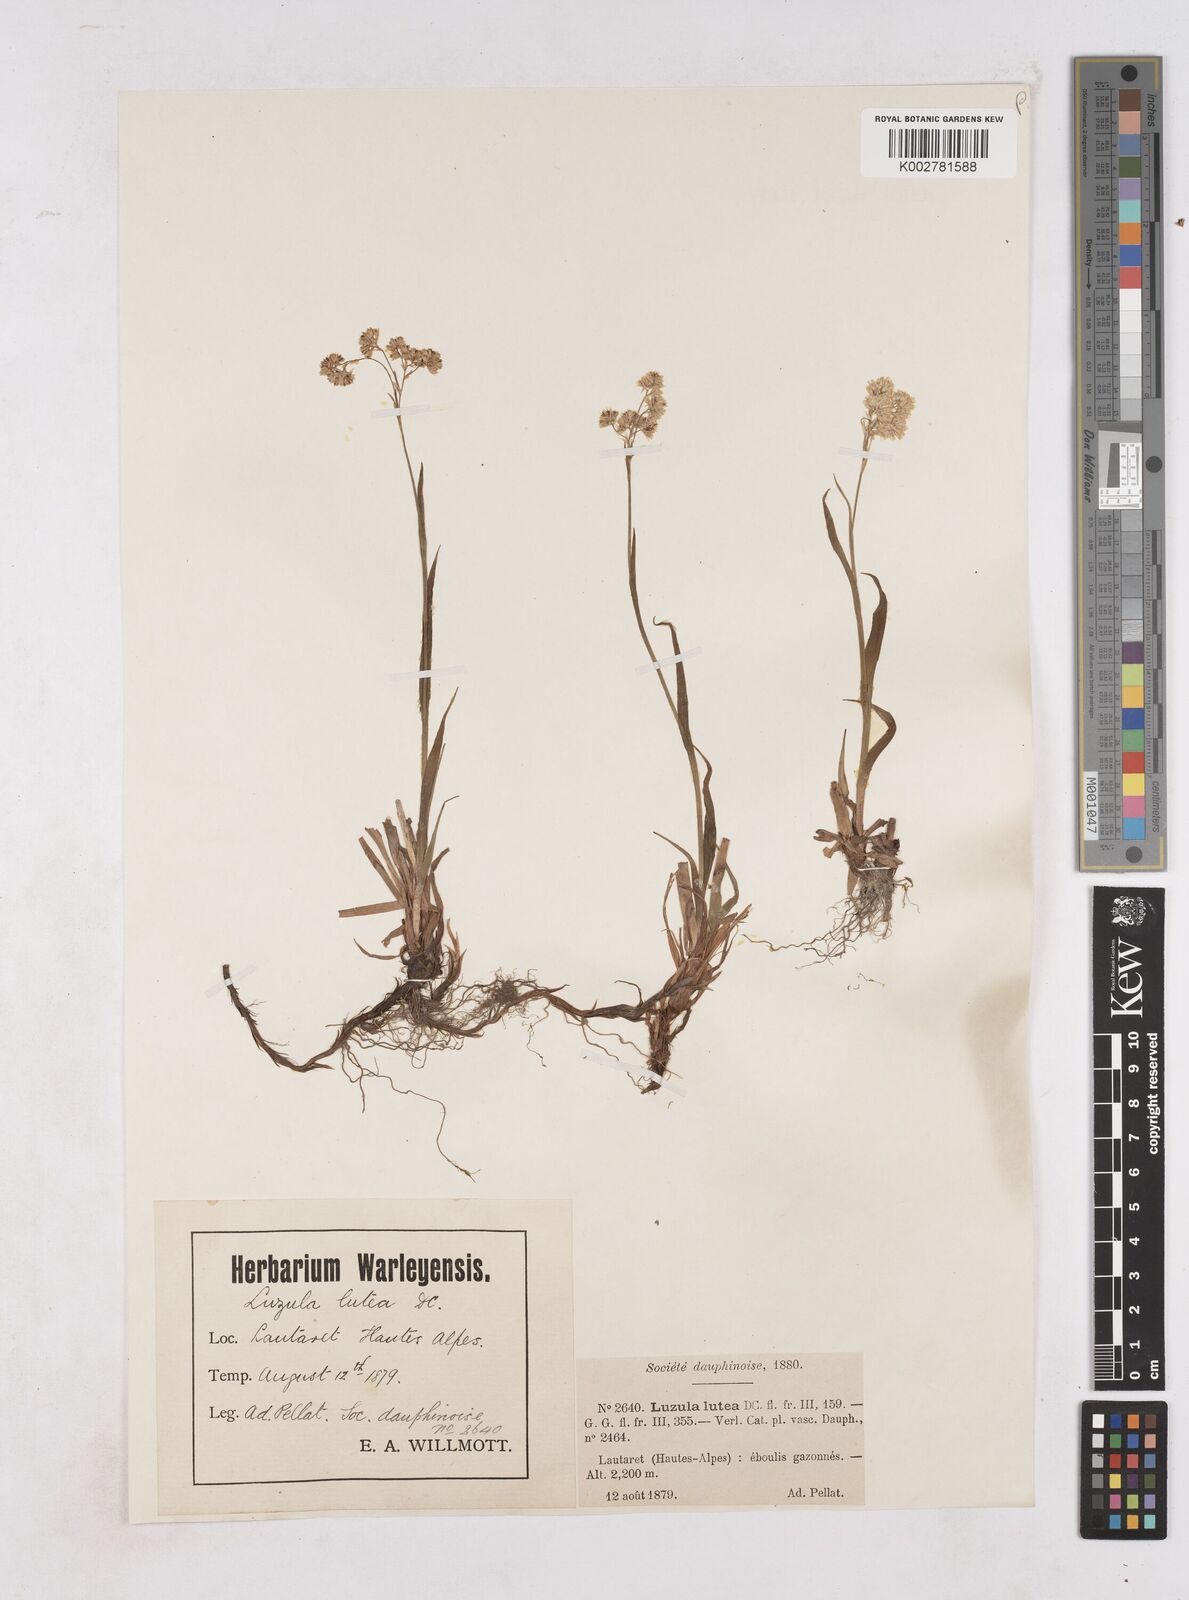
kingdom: Plantae
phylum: Tracheophyta
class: Liliopsida
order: Poales
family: Juncaceae
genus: Luzula
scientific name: Luzula lutea
